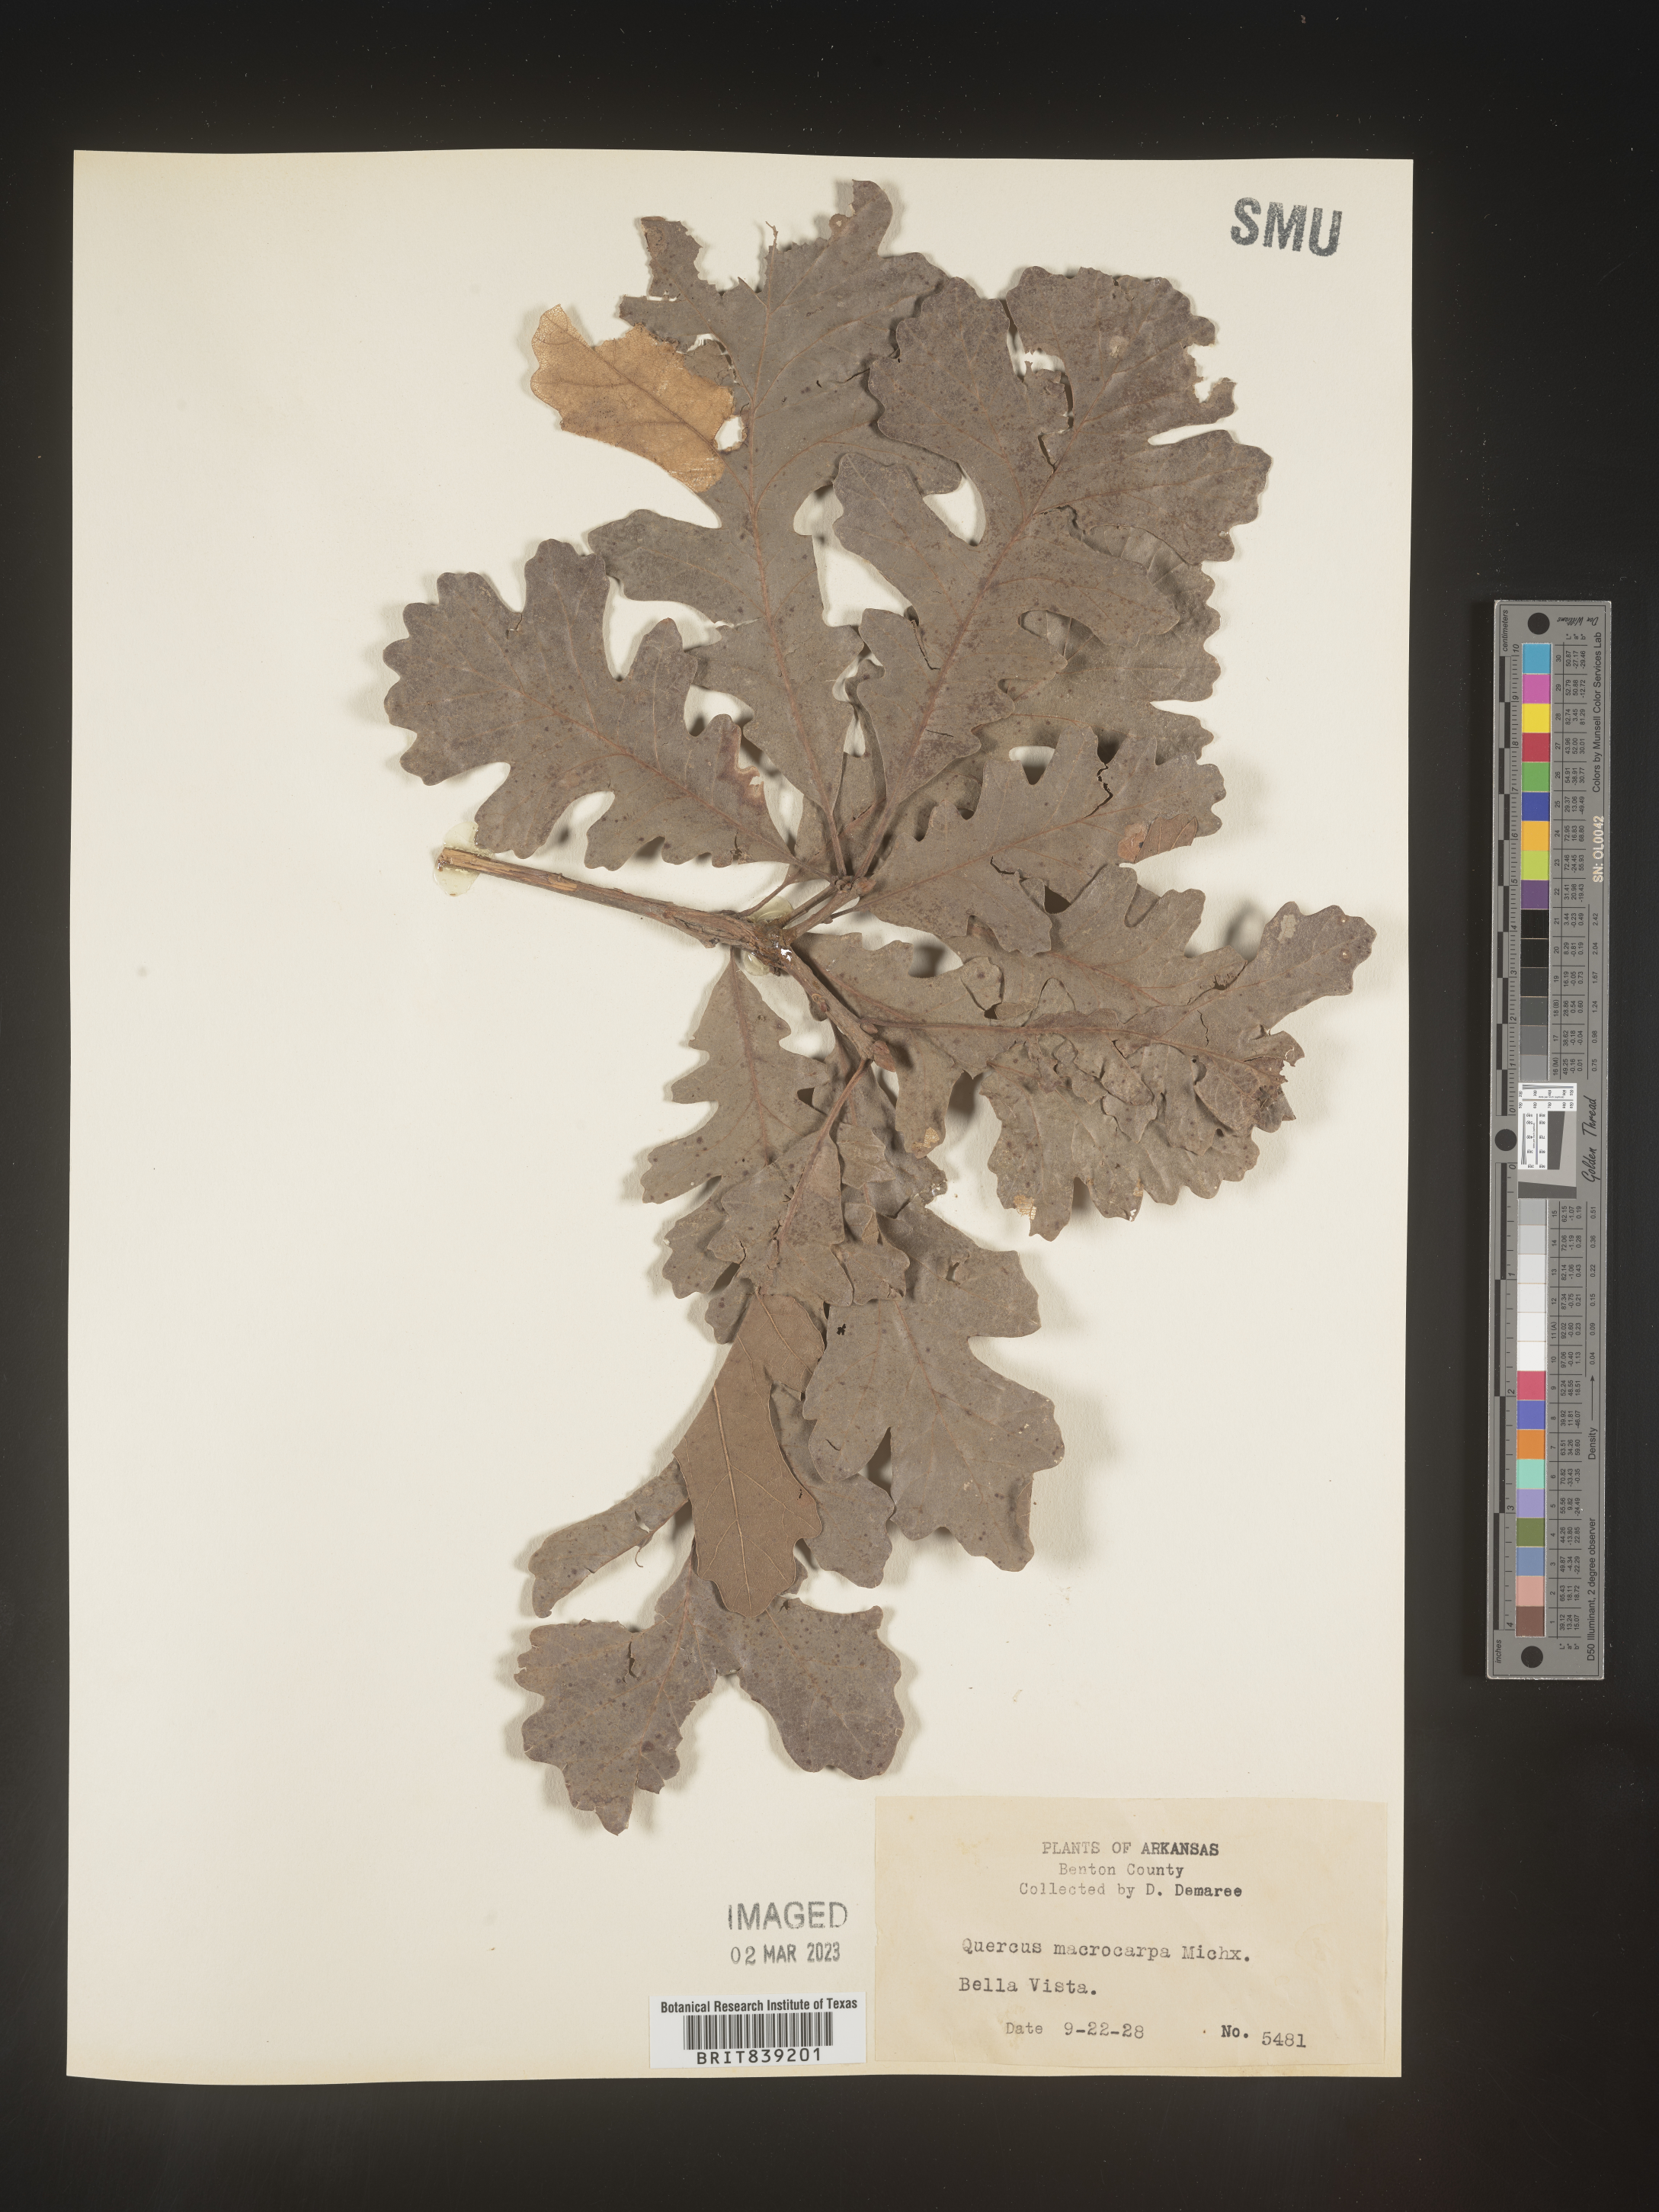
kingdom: Plantae
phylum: Tracheophyta
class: Magnoliopsida
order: Fagales
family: Fagaceae
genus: Quercus
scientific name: Quercus macrocarpa
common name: Bur oak
